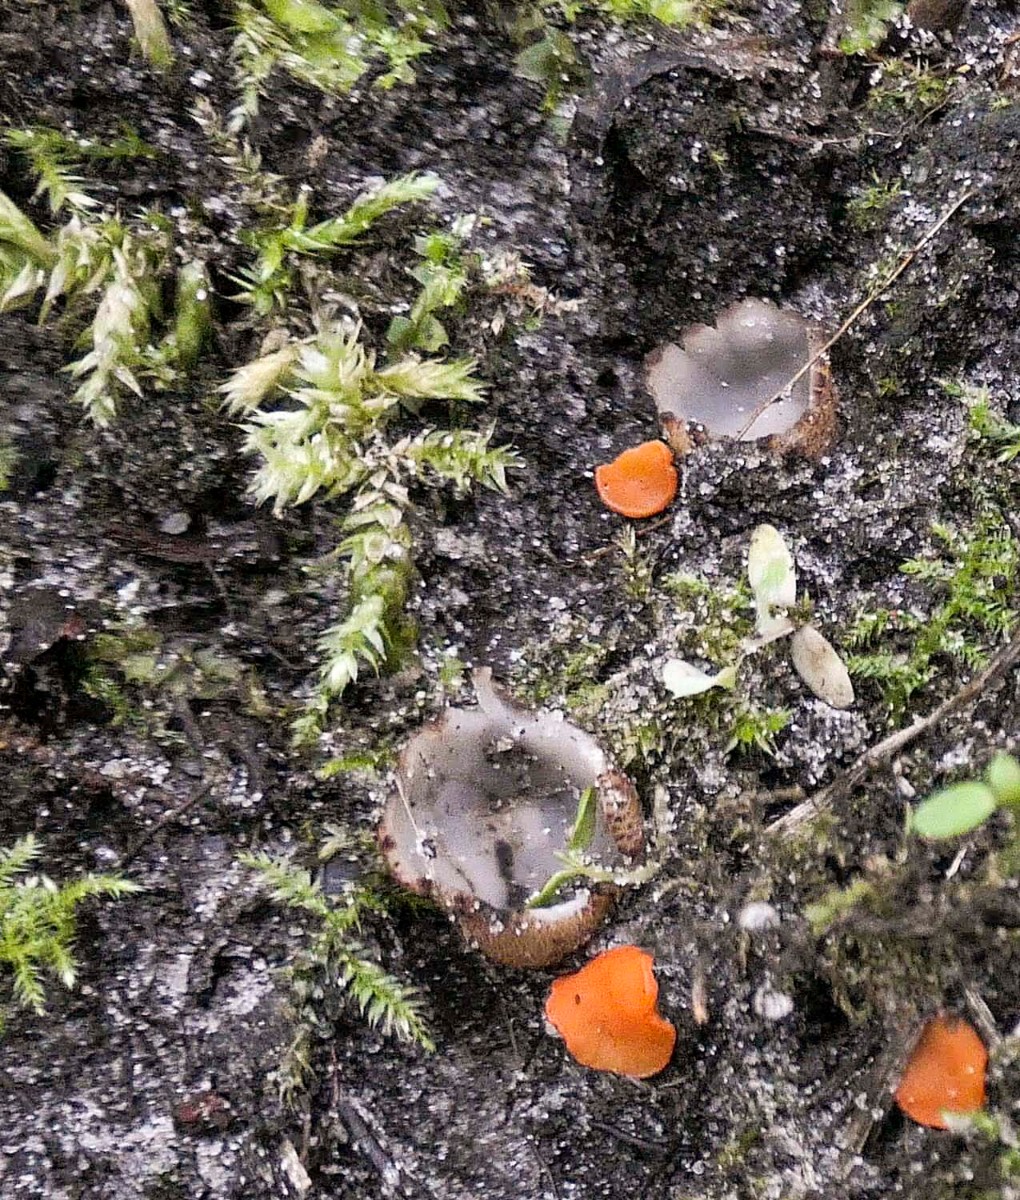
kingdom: Fungi
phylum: Ascomycota
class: Pezizomycetes
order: Pezizales
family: Pyronemataceae
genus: Geopora
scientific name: Geopora tenuis
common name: frit jordbæger
